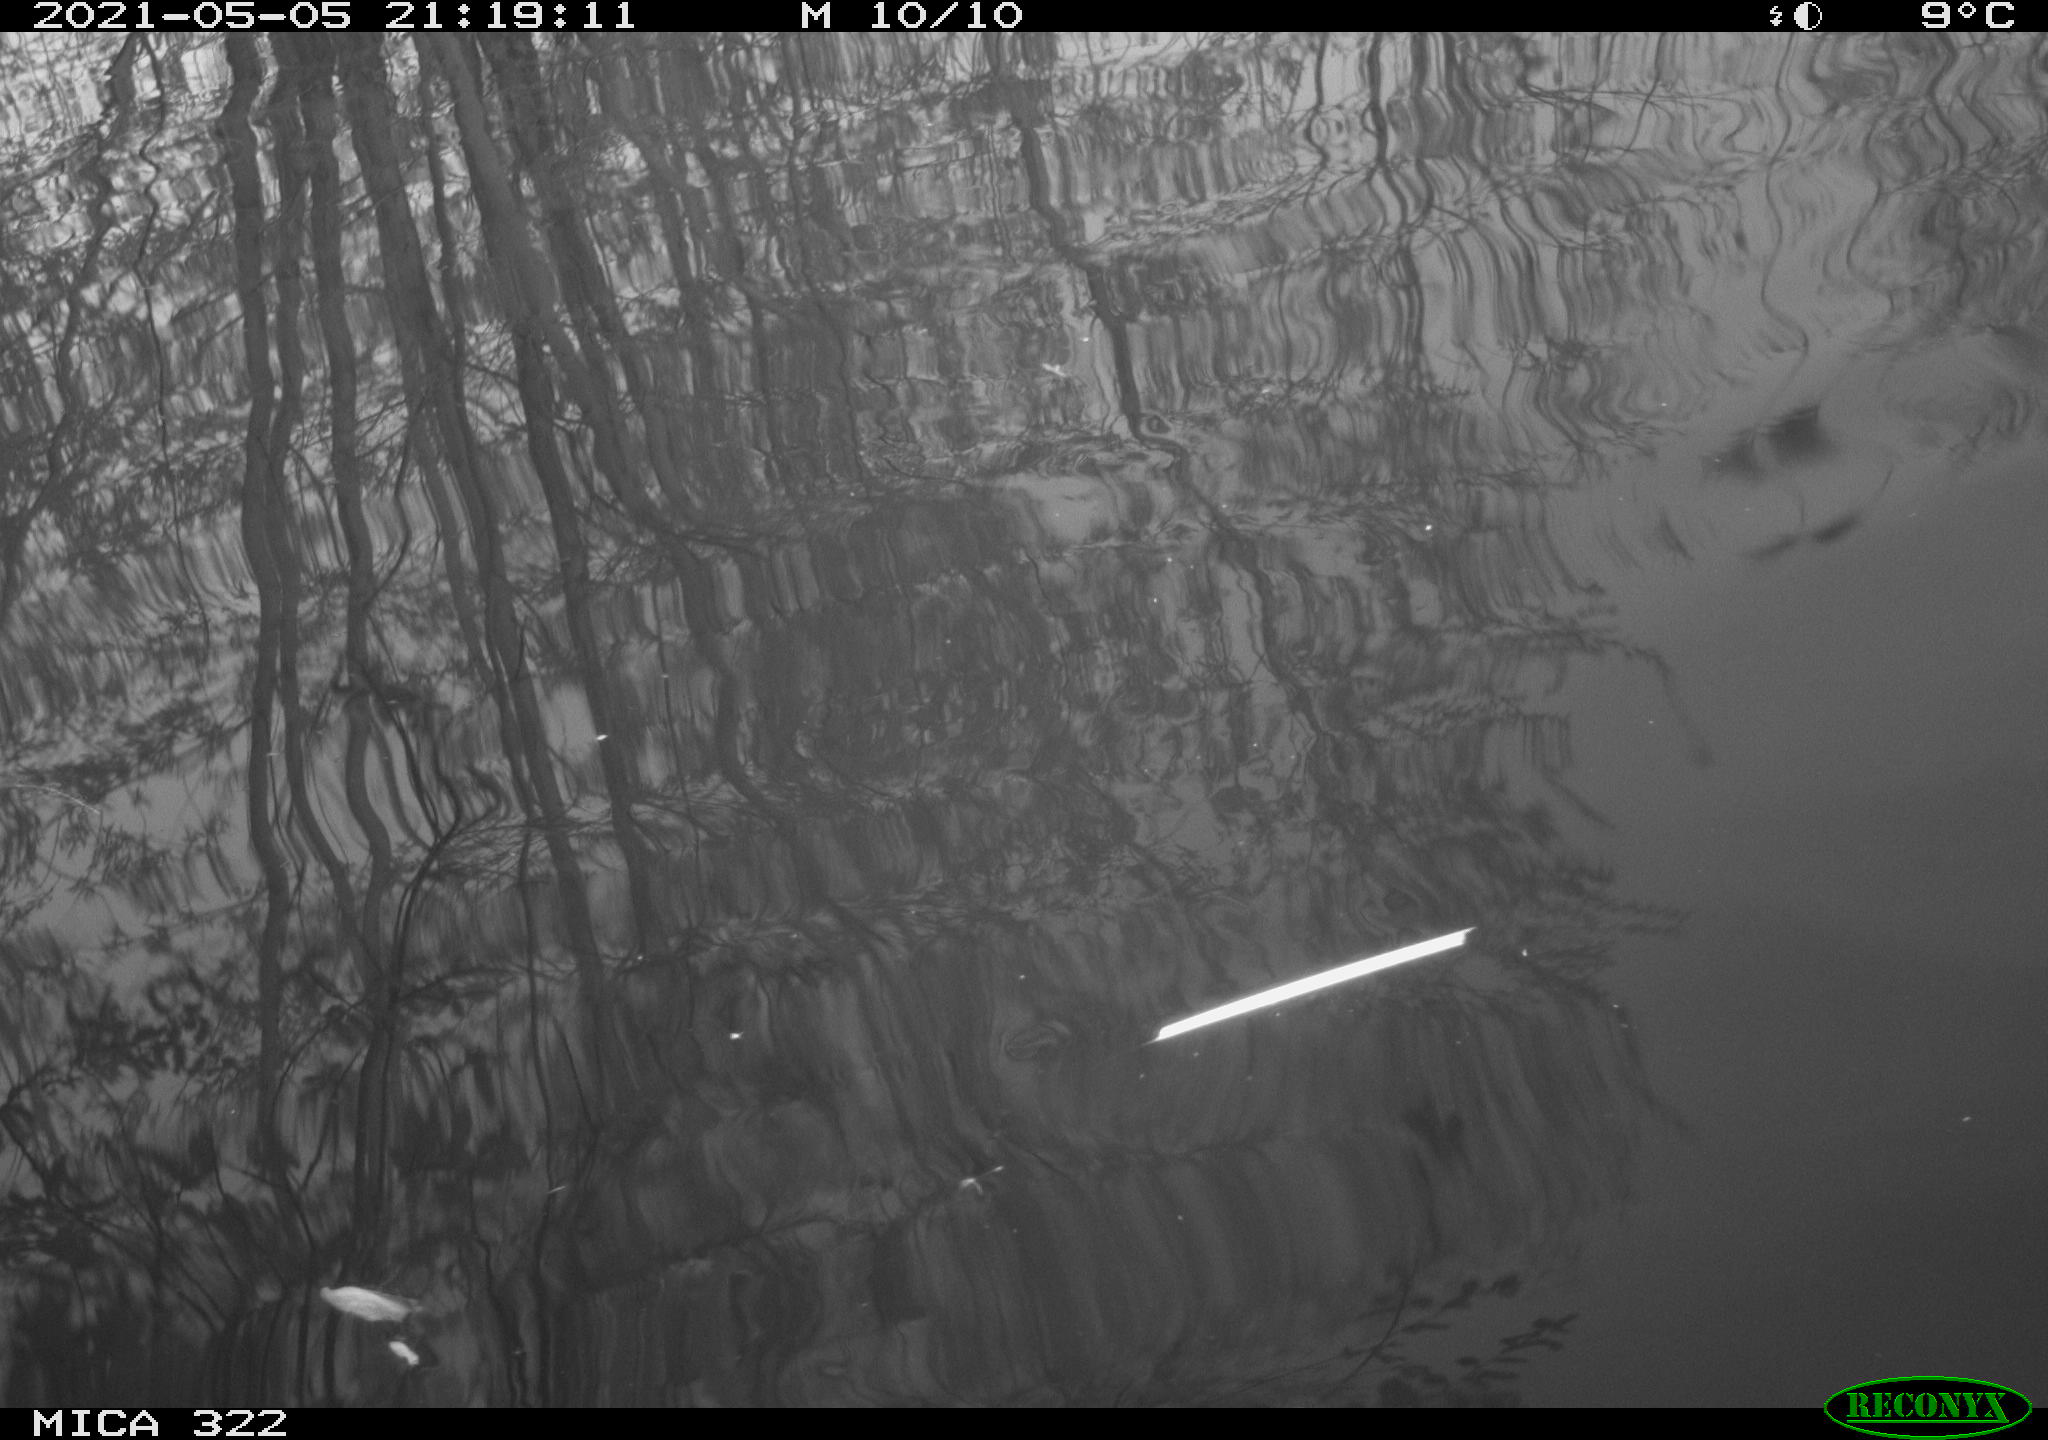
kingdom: Animalia
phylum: Chordata
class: Aves
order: Gruiformes
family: Rallidae
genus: Fulica
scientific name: Fulica atra
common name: Eurasian coot
